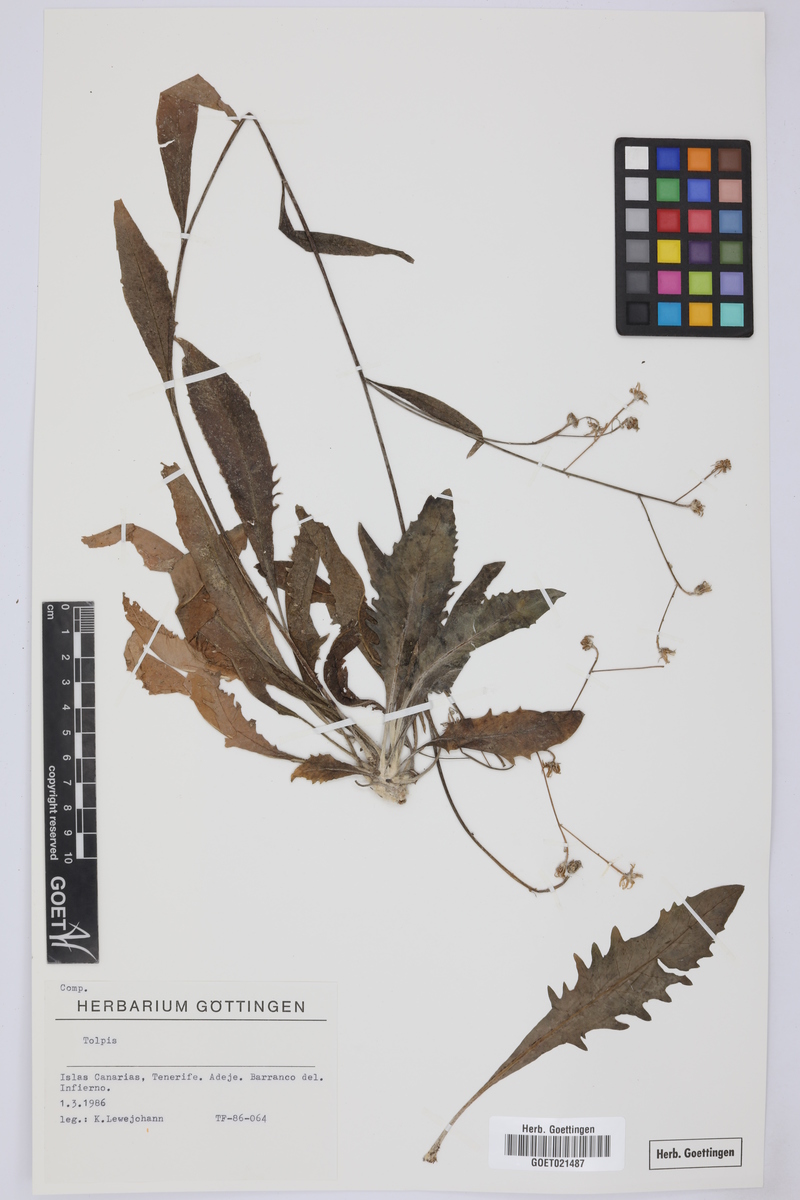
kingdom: Plantae
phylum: Tracheophyta
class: Magnoliopsida
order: Asterales
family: Asteraceae
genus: Tolpis
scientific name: Tolpis
